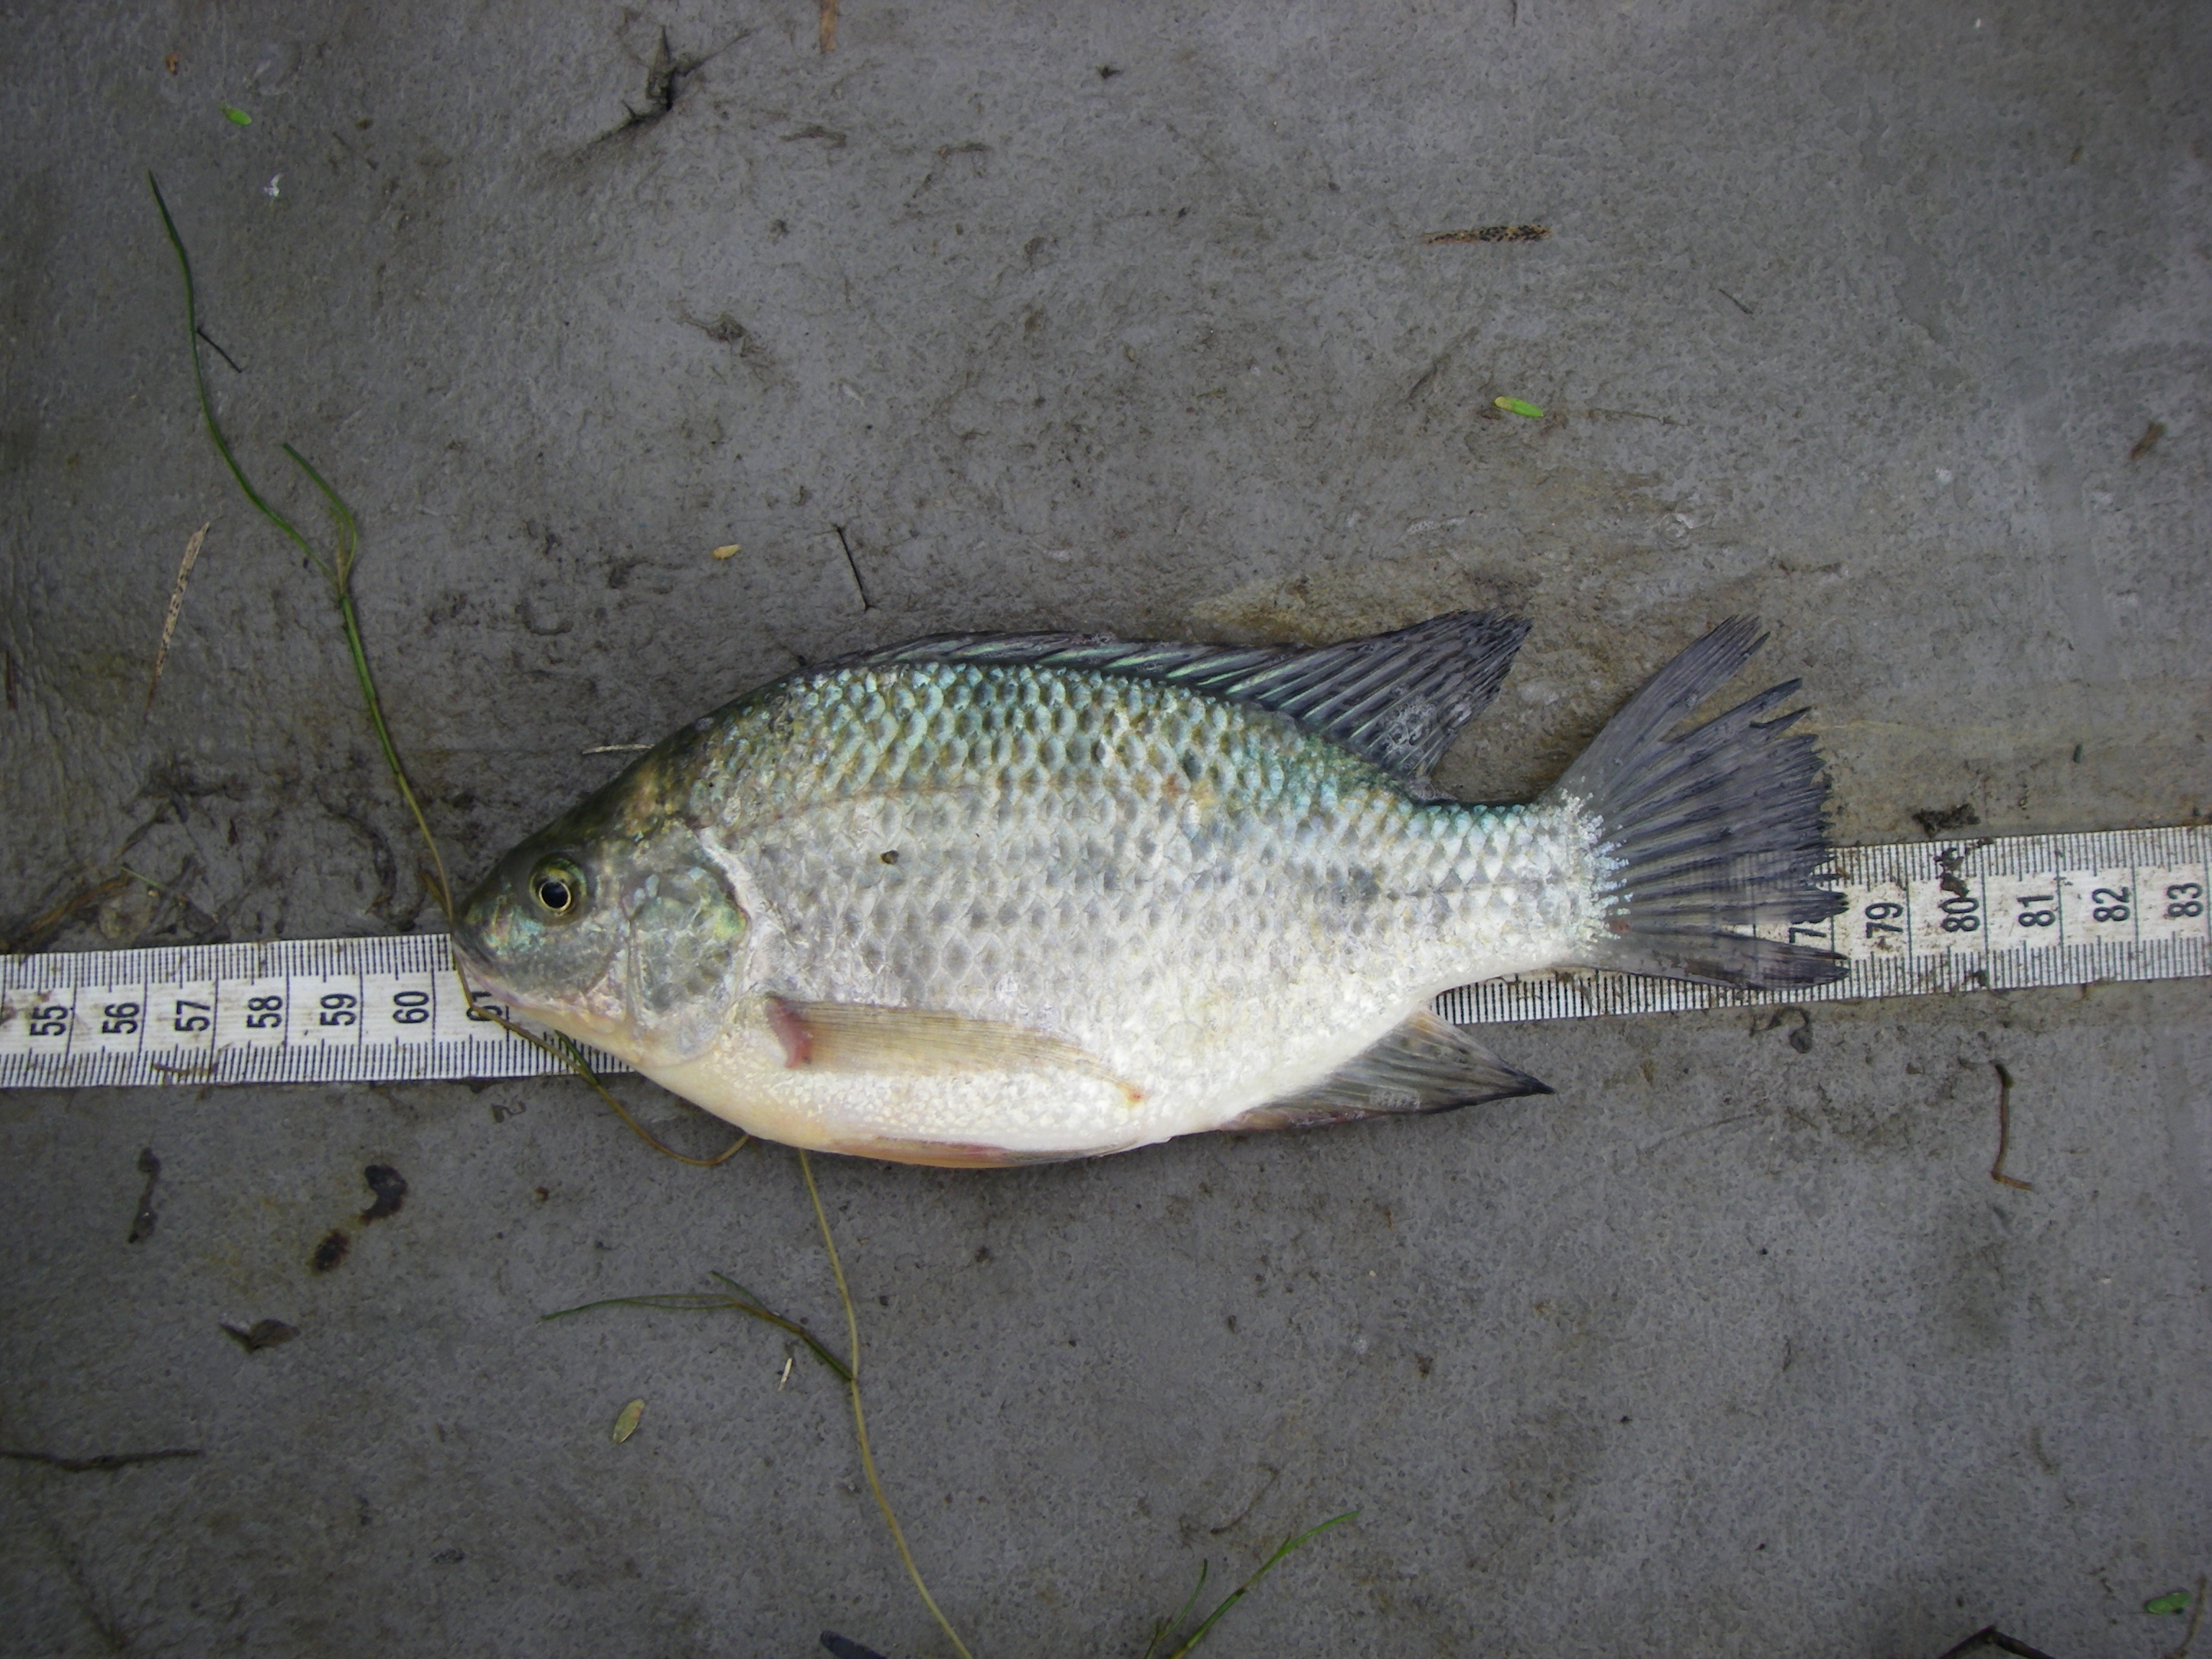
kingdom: Animalia
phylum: Chordata
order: Perciformes
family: Cichlidae
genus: Oreochromis
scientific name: Oreochromis mossambicus
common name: Mozambique tilapia
